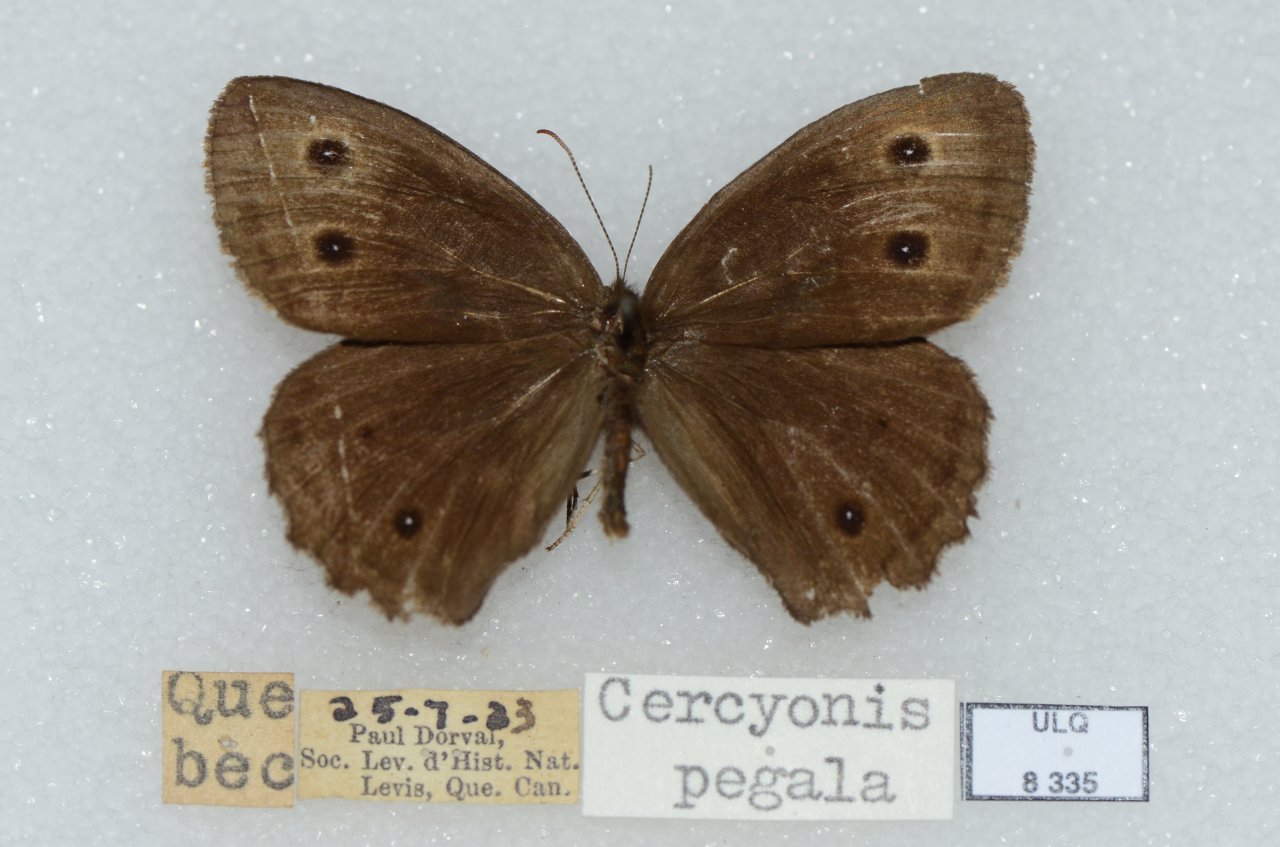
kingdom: Animalia
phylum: Arthropoda
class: Insecta
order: Lepidoptera
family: Nymphalidae
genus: Cercyonis
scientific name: Cercyonis pegala
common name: Common Wood-Nymph
